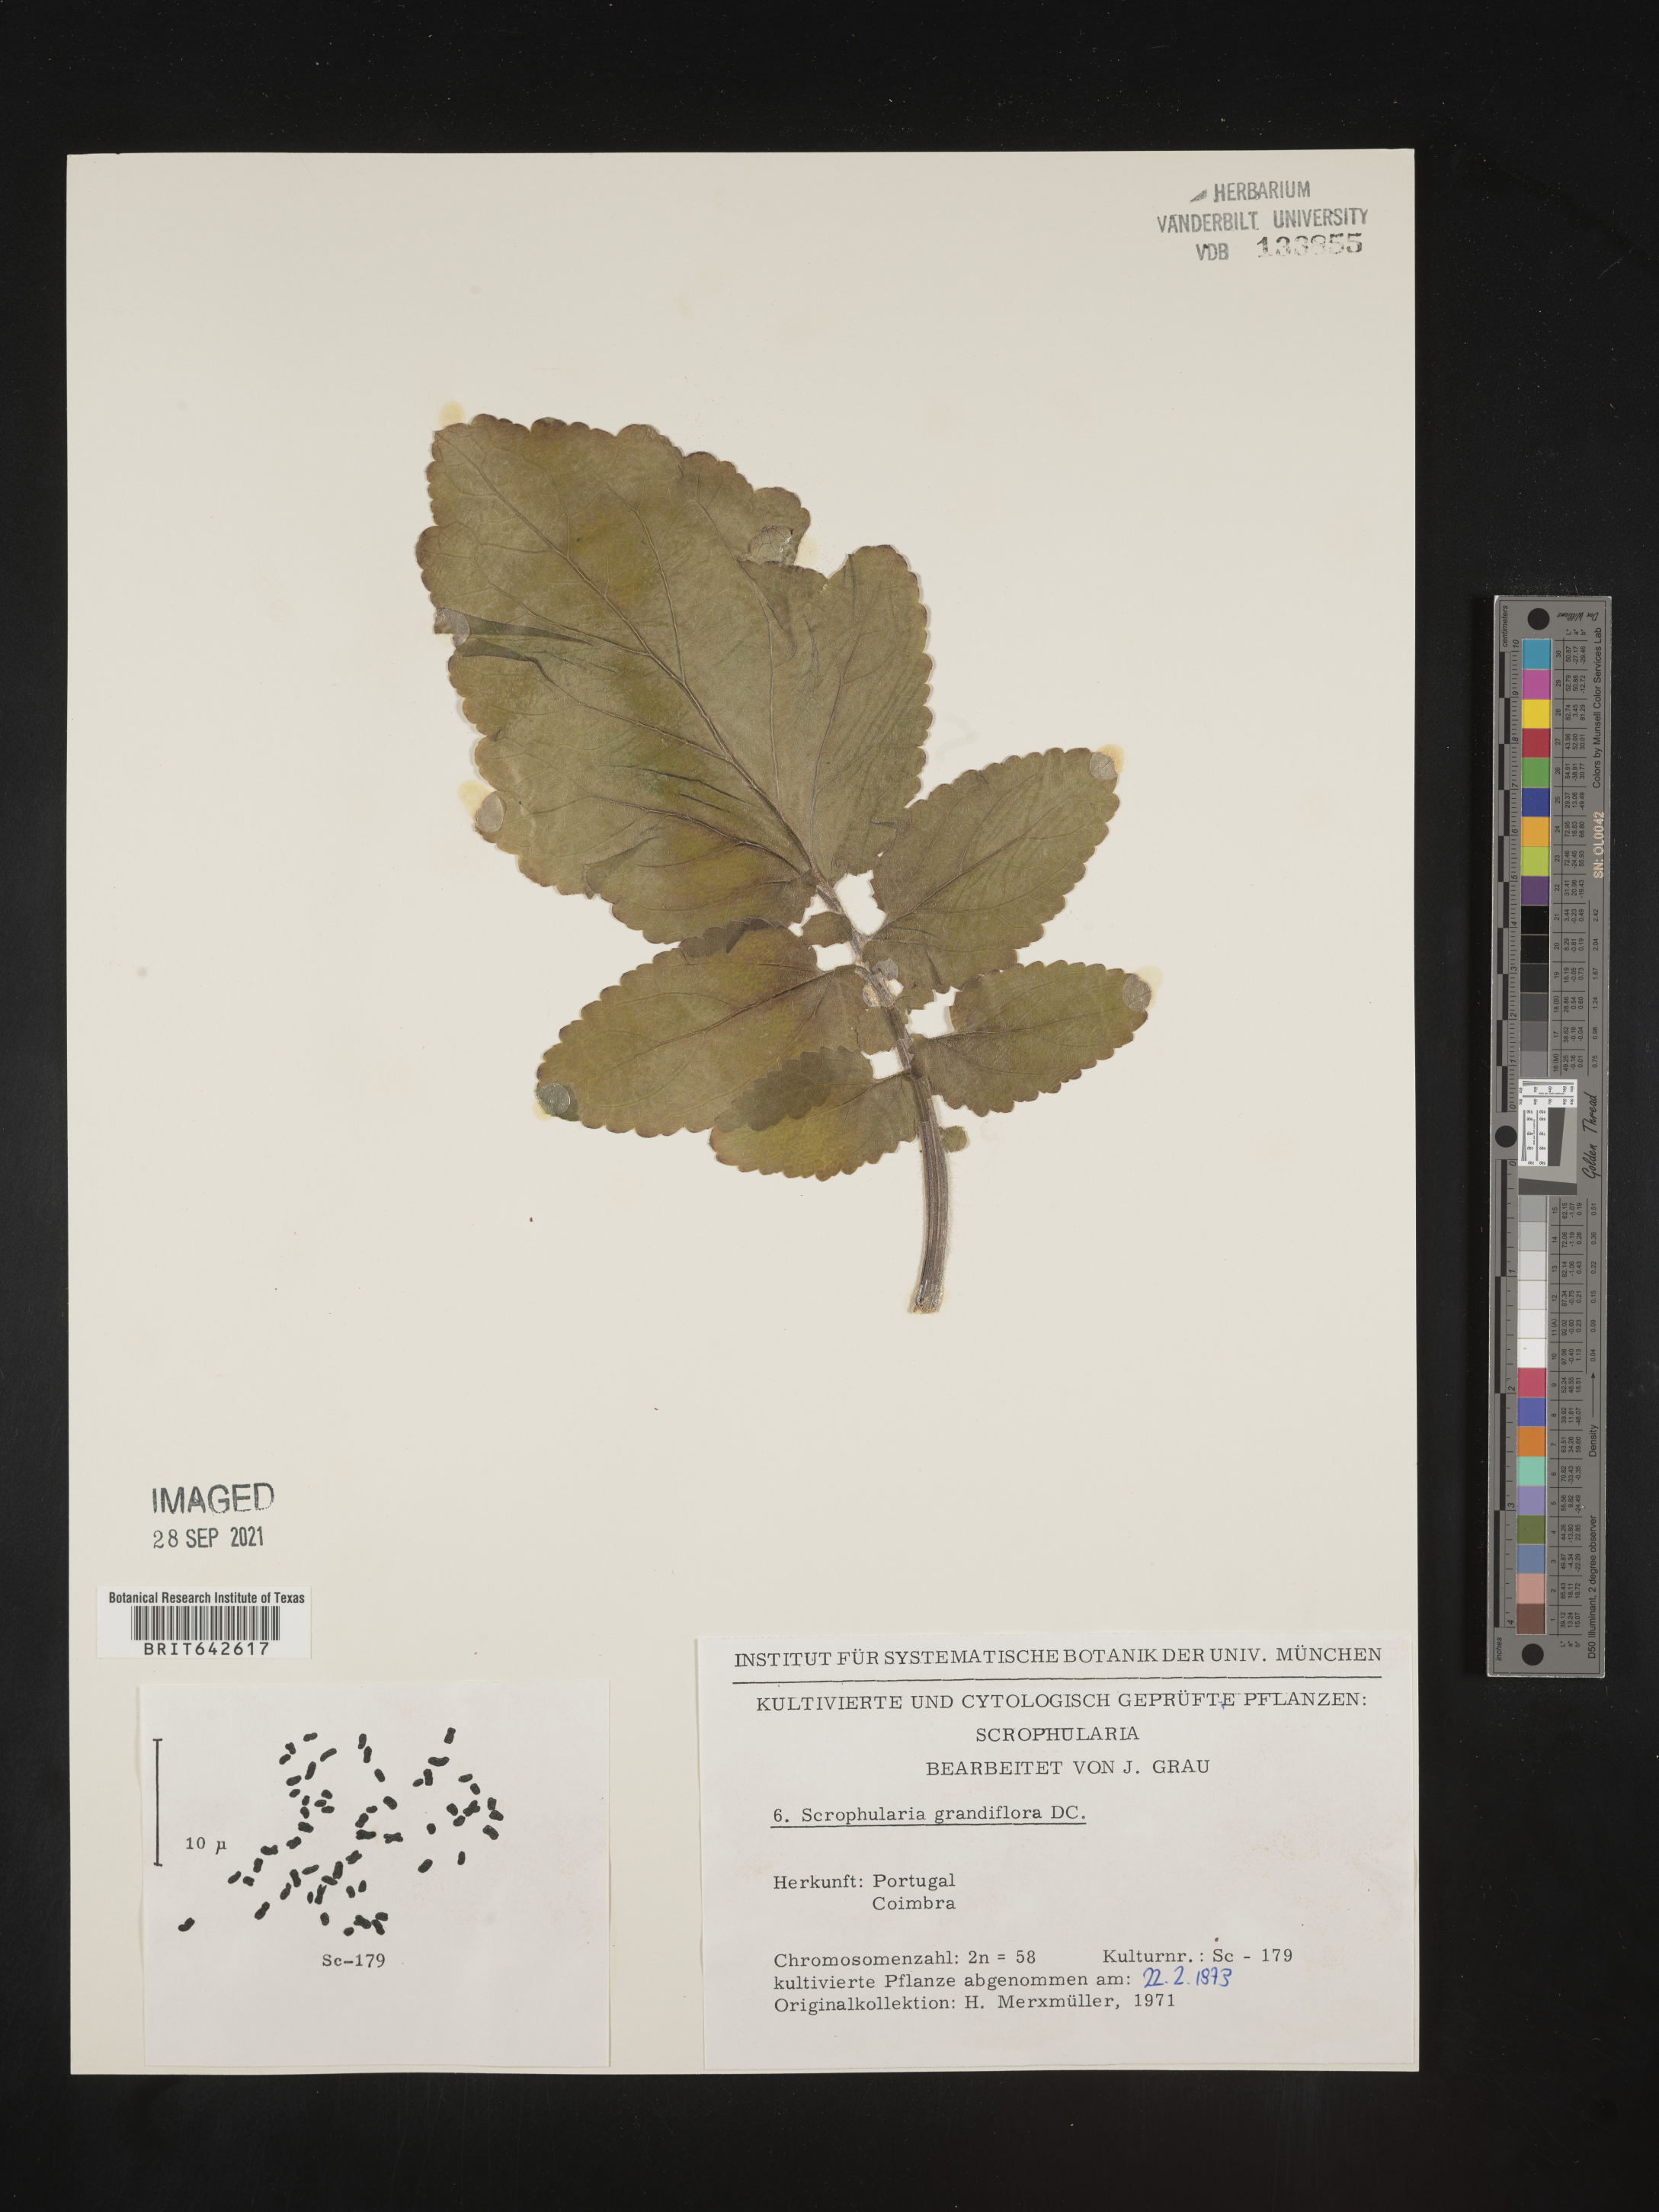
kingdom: Plantae
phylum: Tracheophyta
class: Magnoliopsida
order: Lamiales
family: Scrophulariaceae
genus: Scrophularia
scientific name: Scrophularia
